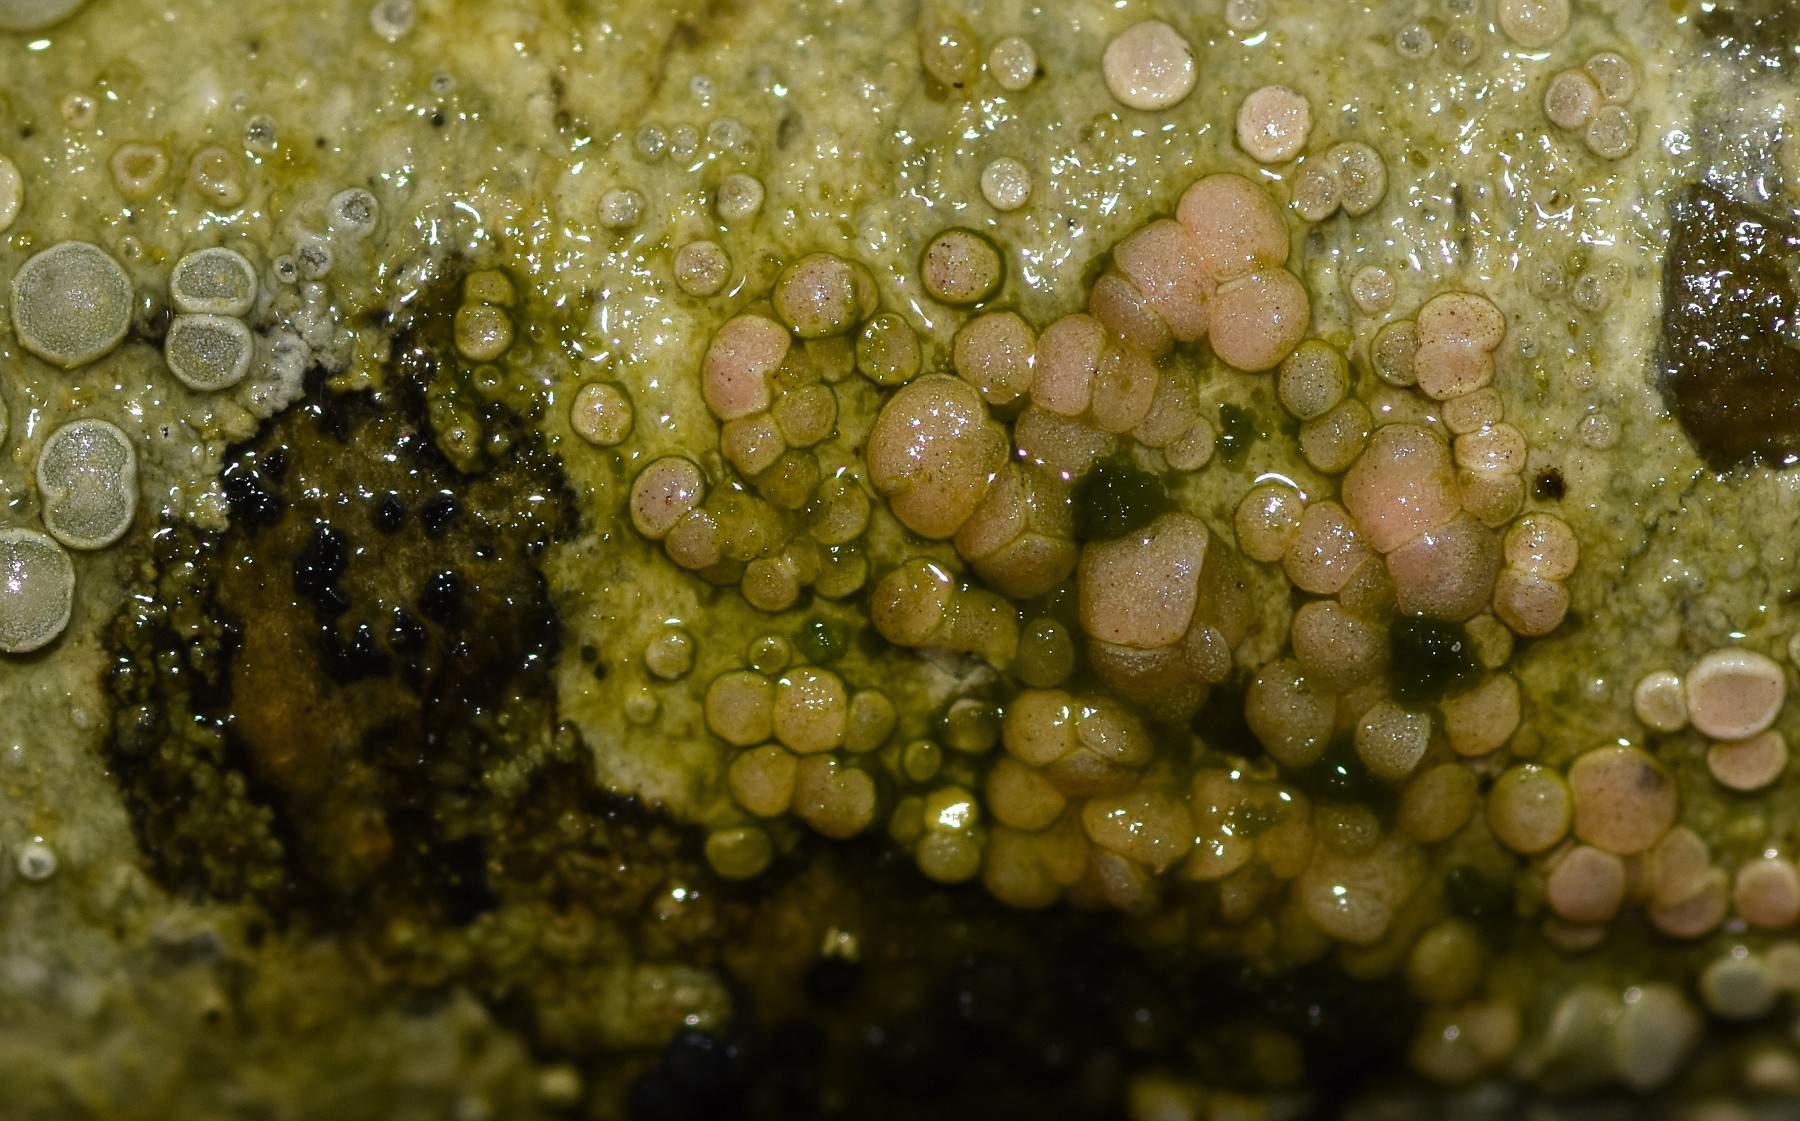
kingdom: Fungi
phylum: Ascomycota
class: Lecanoromycetes
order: Lecanorales
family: Lecanoraceae
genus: Lecanora
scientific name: Lecanora chlarotera
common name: brun kantskivelav
